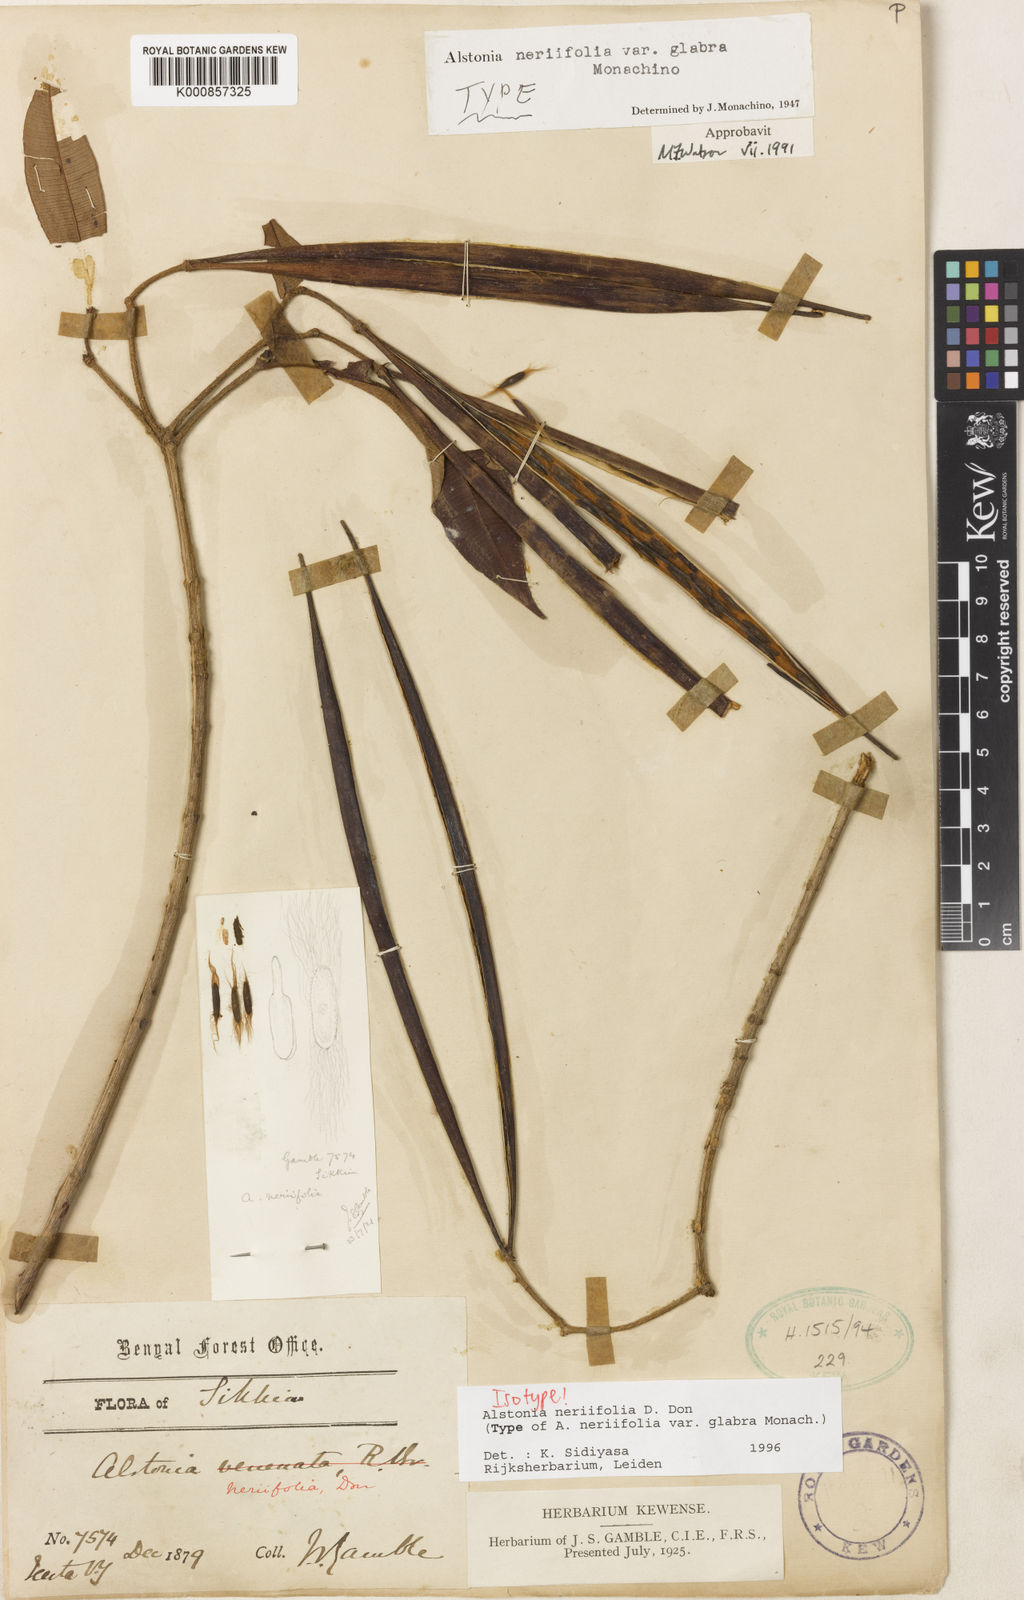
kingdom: Plantae
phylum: Tracheophyta
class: Magnoliopsida
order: Gentianales
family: Apocynaceae
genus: Alstonia
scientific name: Alstonia neriifolia
